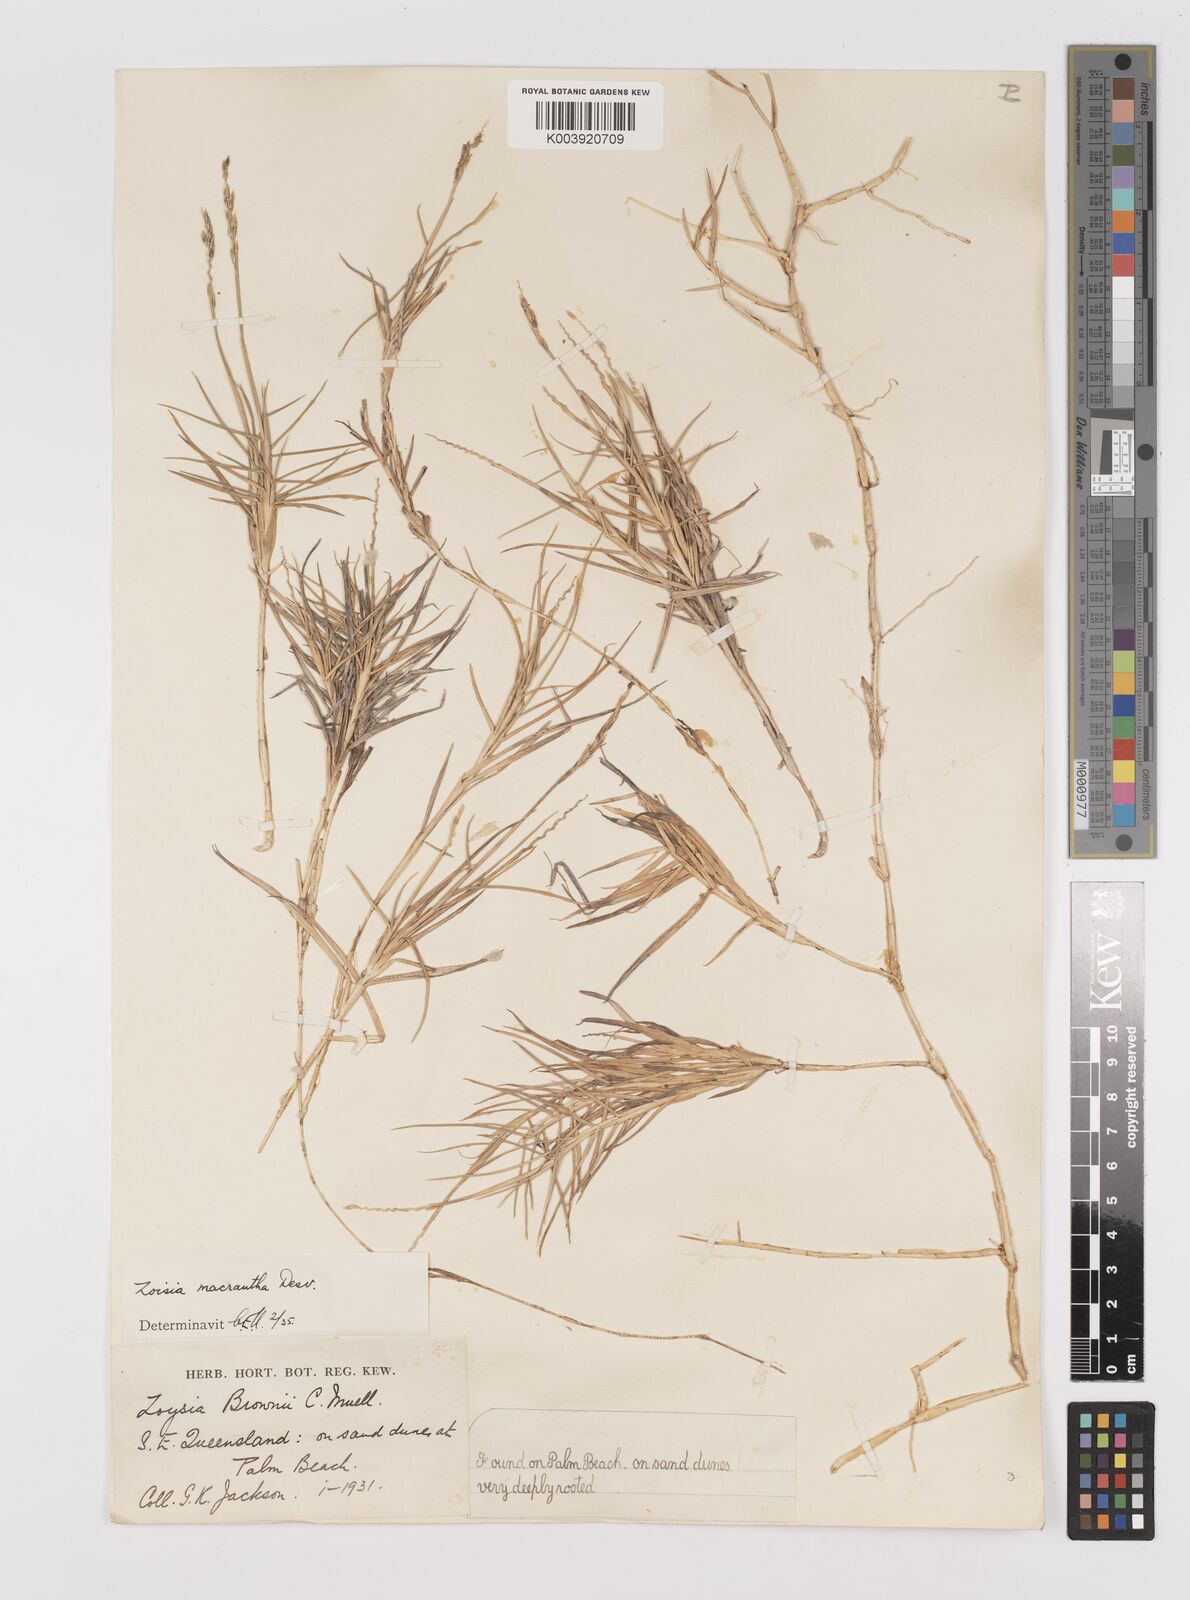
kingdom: Plantae
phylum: Tracheophyta
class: Liliopsida
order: Poales
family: Poaceae
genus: Zoysia
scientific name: Zoysia macrantha
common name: Korean lawn grass
